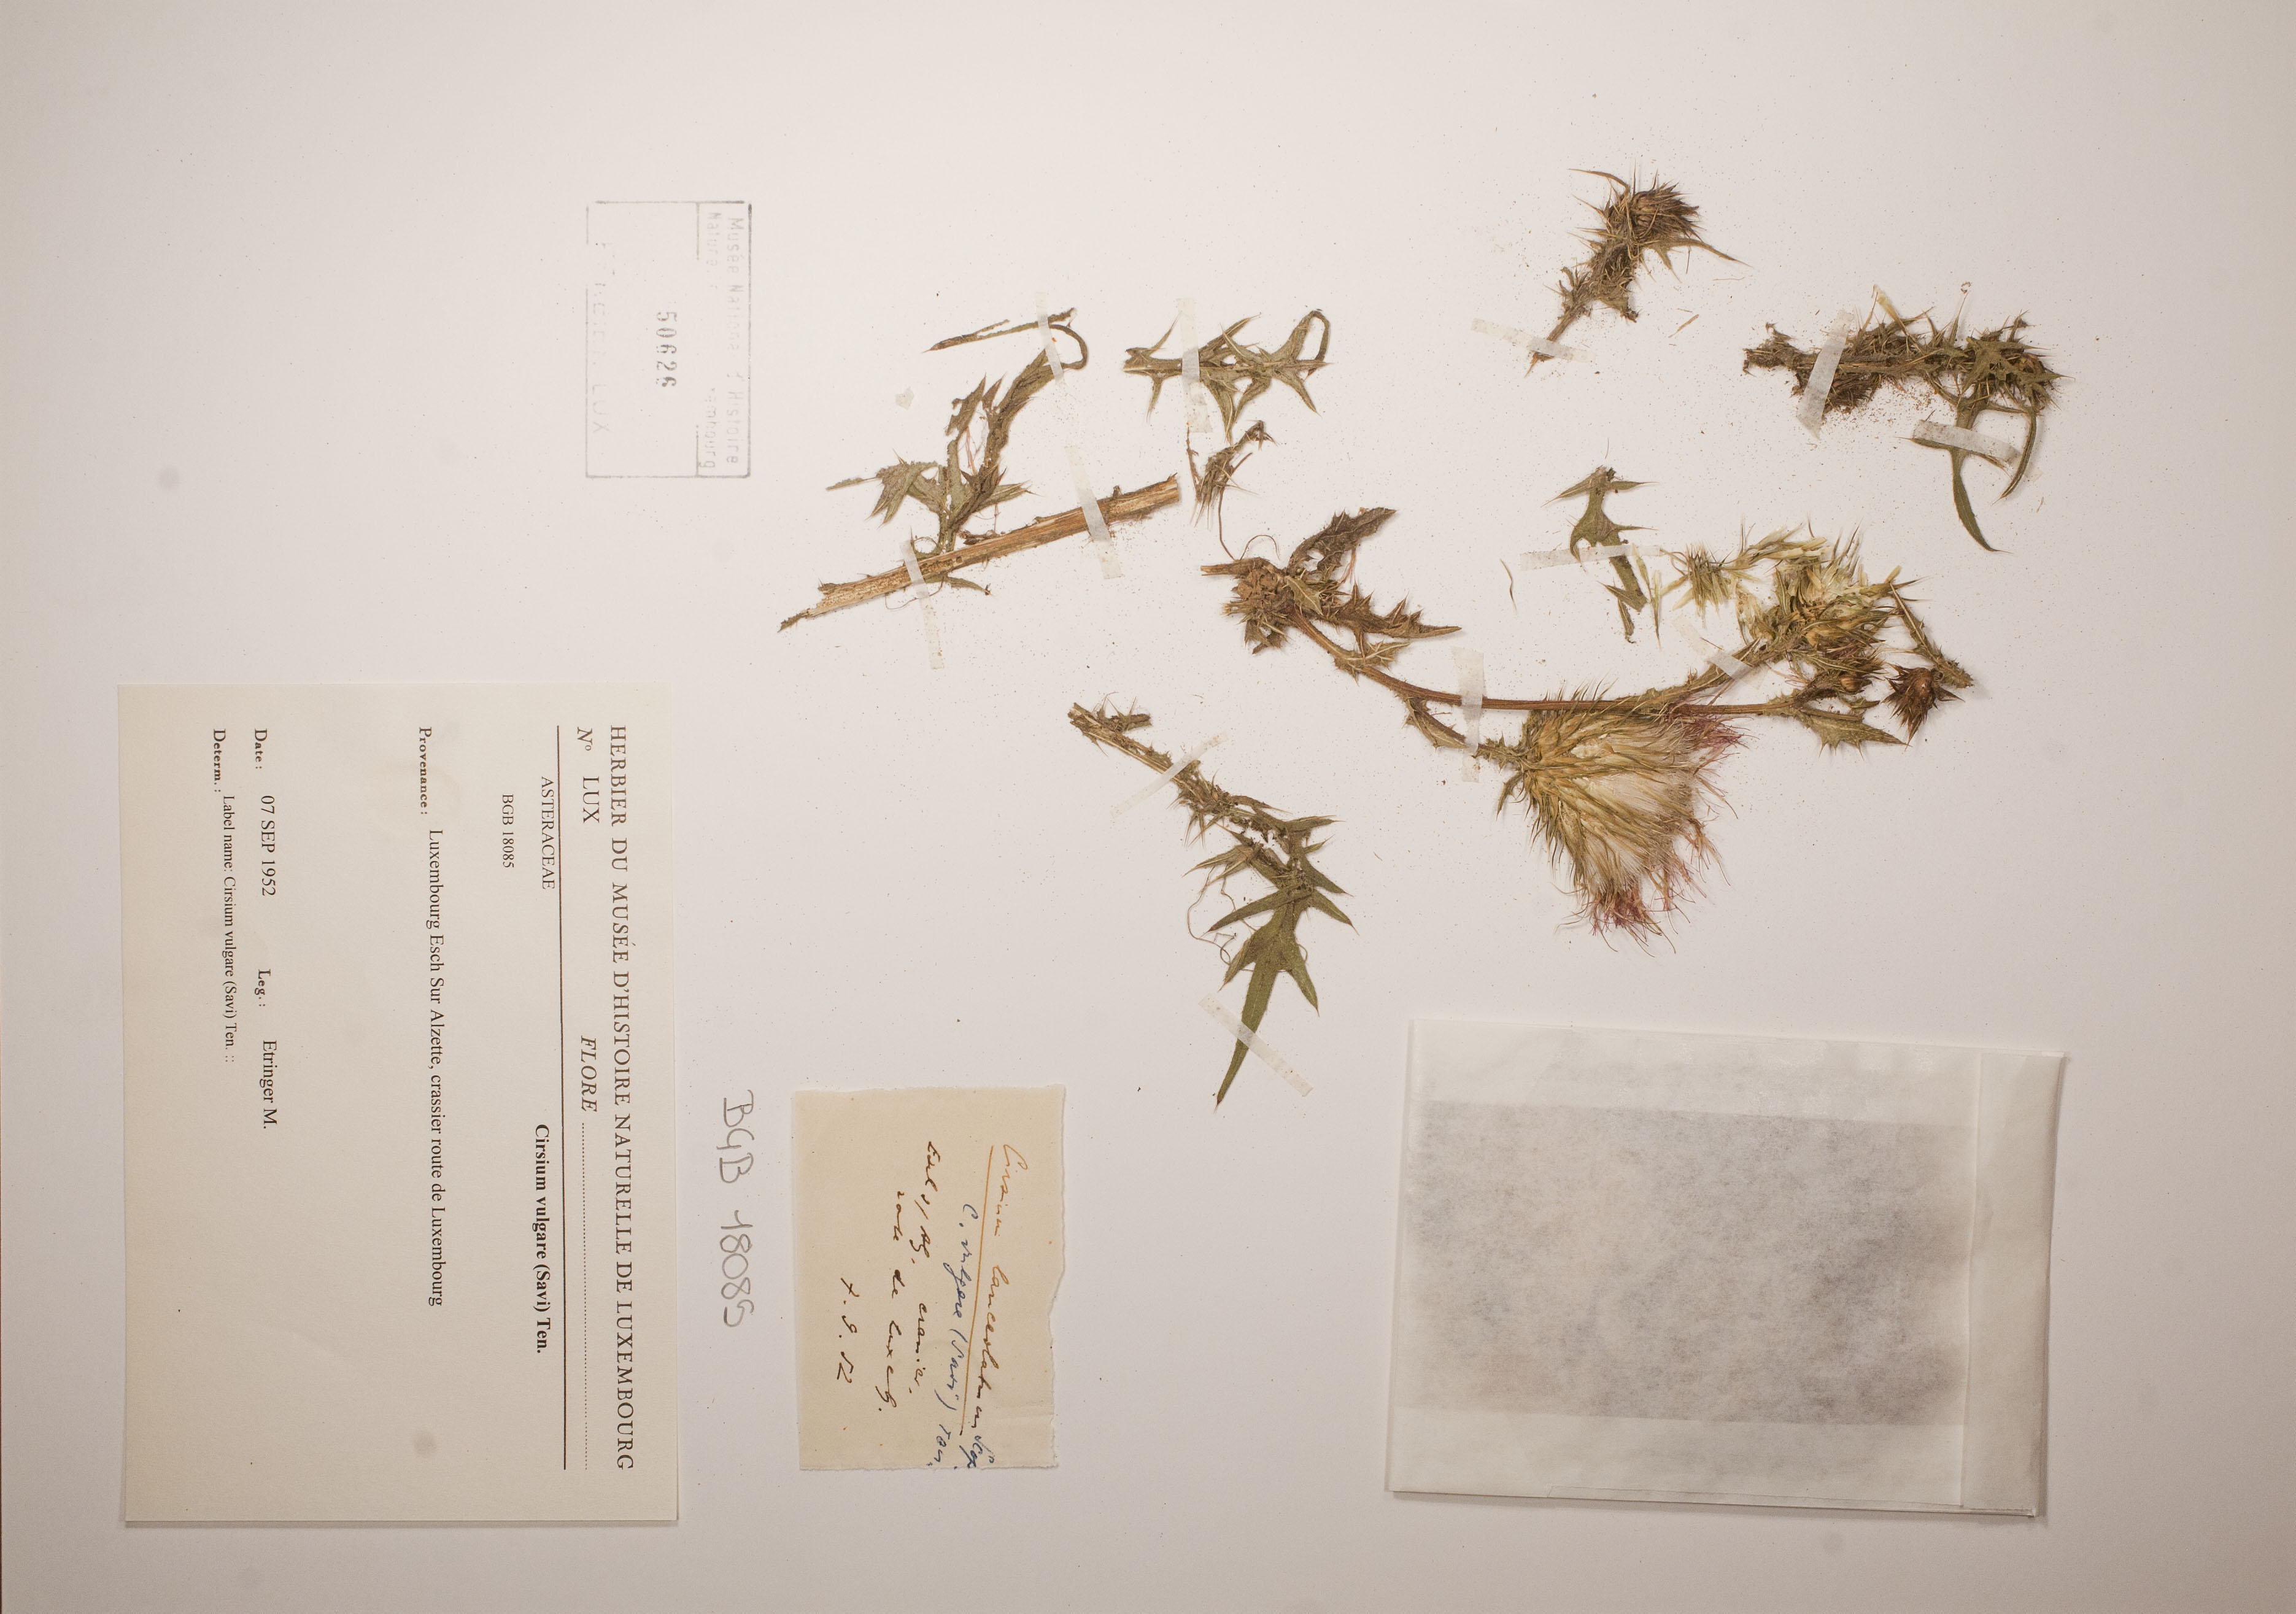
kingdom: Plantae
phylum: Tracheophyta
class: Magnoliopsida
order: Asterales
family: Asteraceae
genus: Cirsium
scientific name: Cirsium vulgare
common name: Bull thistle
